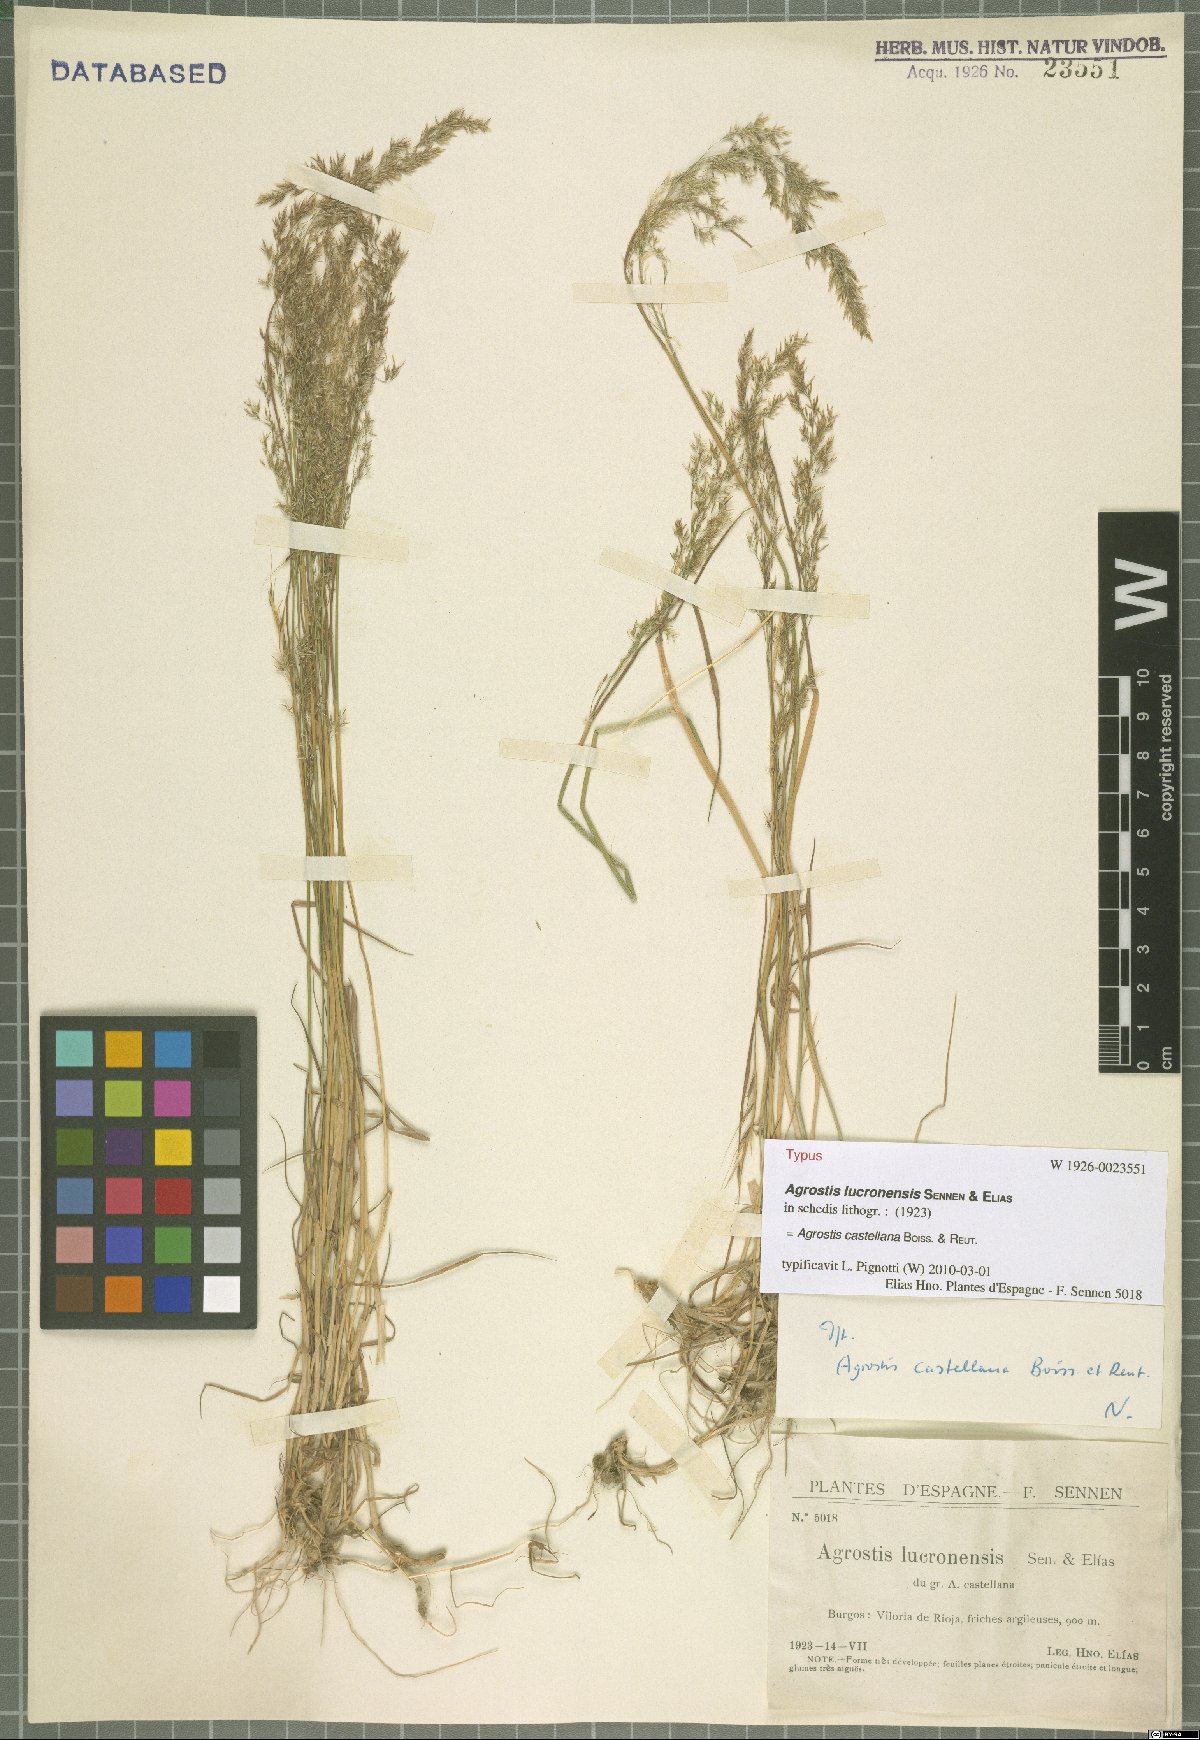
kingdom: Plantae
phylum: Tracheophyta
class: Liliopsida
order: Poales
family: Poaceae
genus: Agrostis
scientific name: Agrostis castellana
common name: Highland bent
